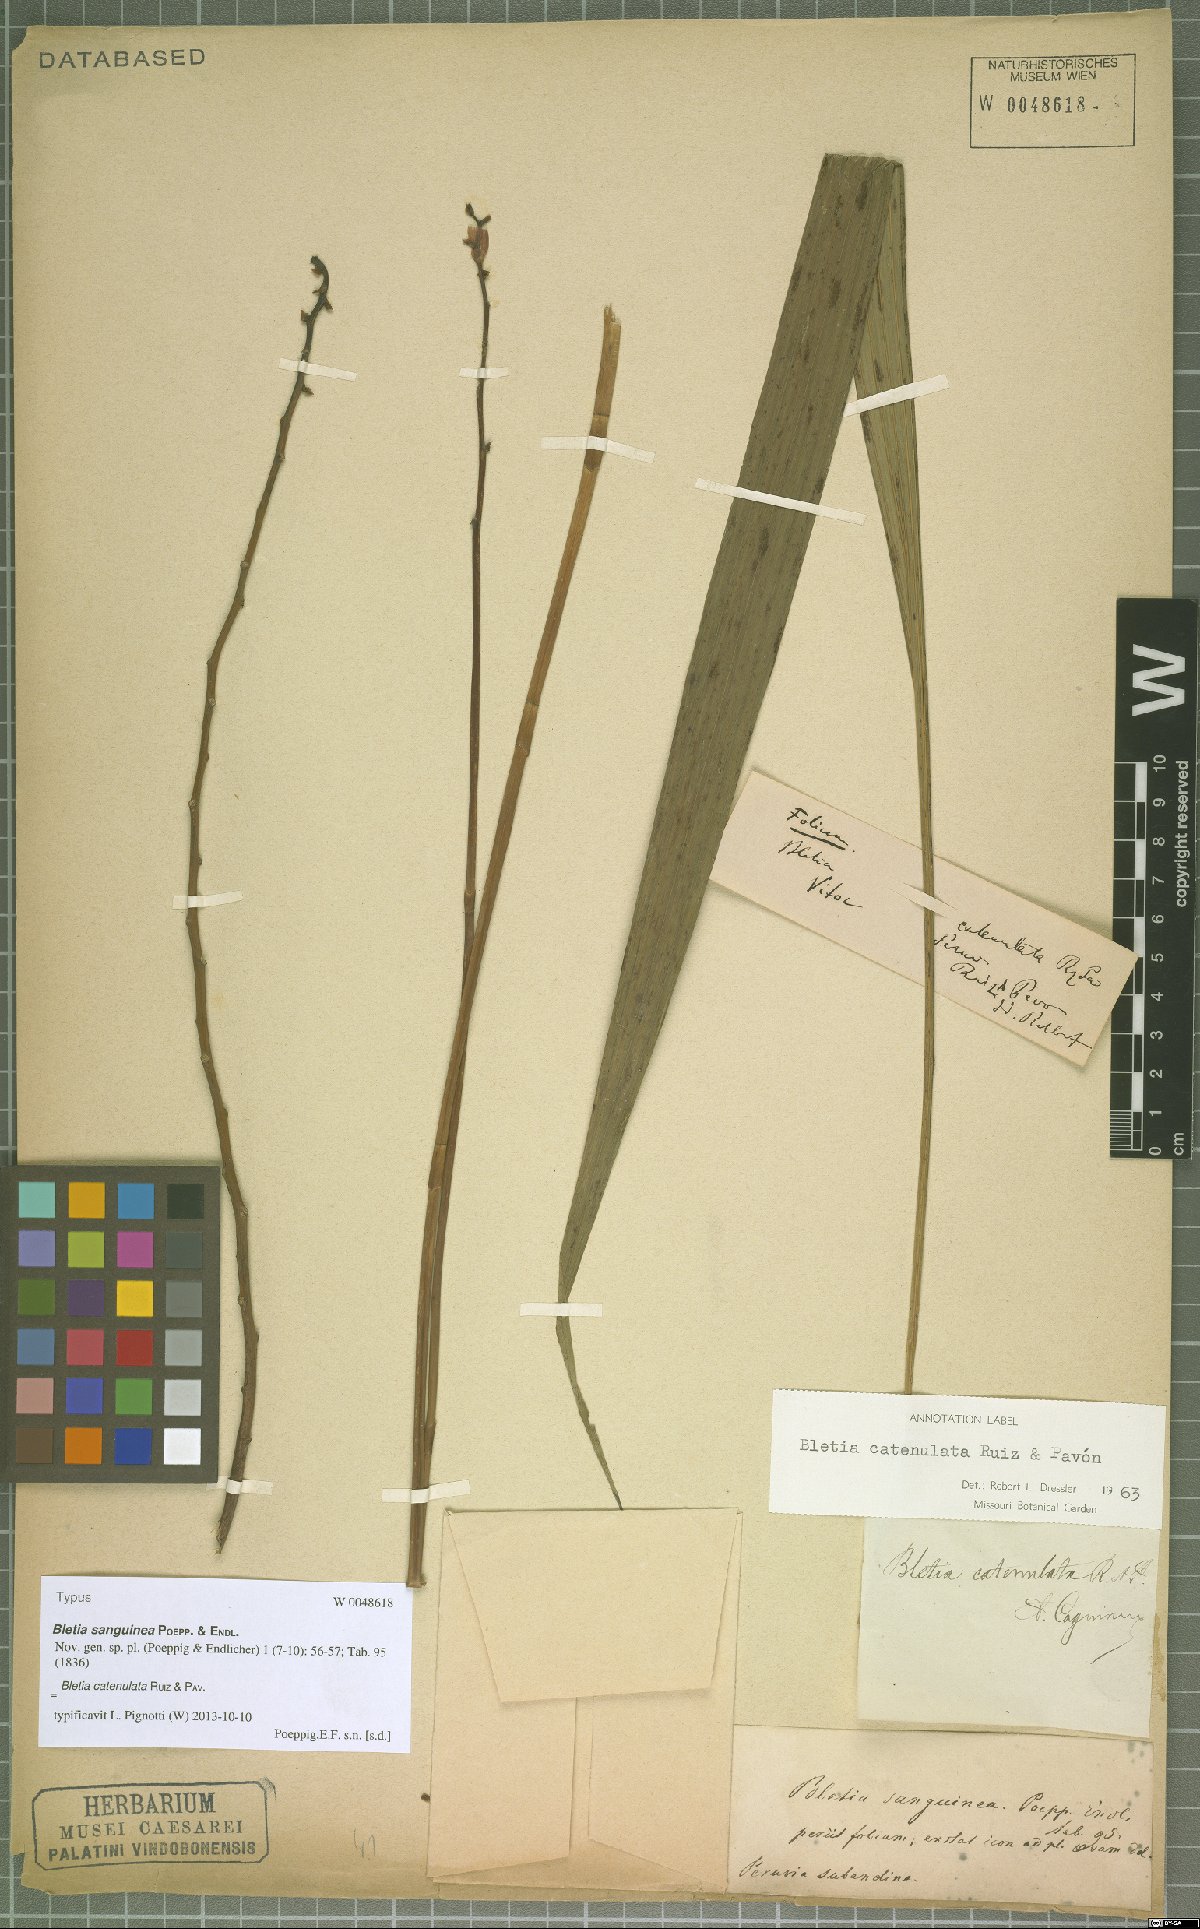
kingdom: Plantae
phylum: Tracheophyta
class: Liliopsida
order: Asparagales
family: Orchidaceae
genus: Bletia
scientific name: Bletia catenulata
